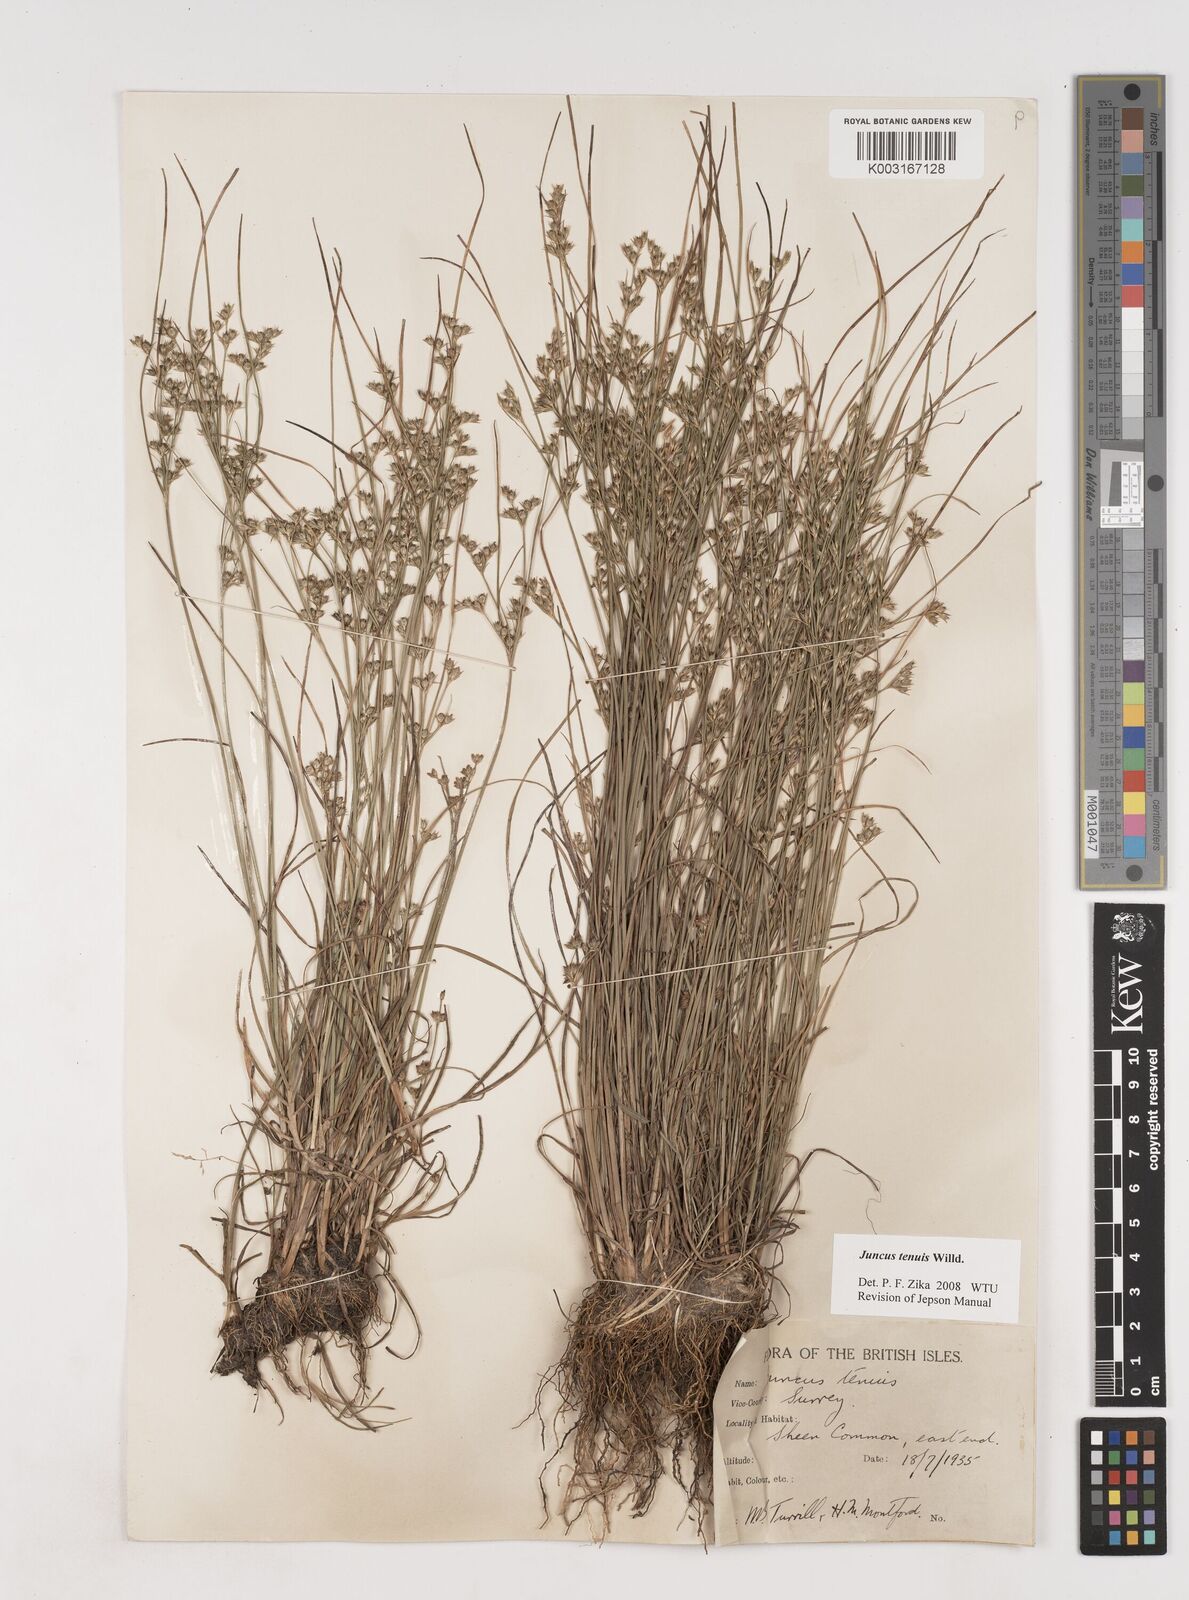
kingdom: Plantae
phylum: Tracheophyta
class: Liliopsida
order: Poales
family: Juncaceae
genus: Juncus
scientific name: Juncus tenuis
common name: Slender rush
